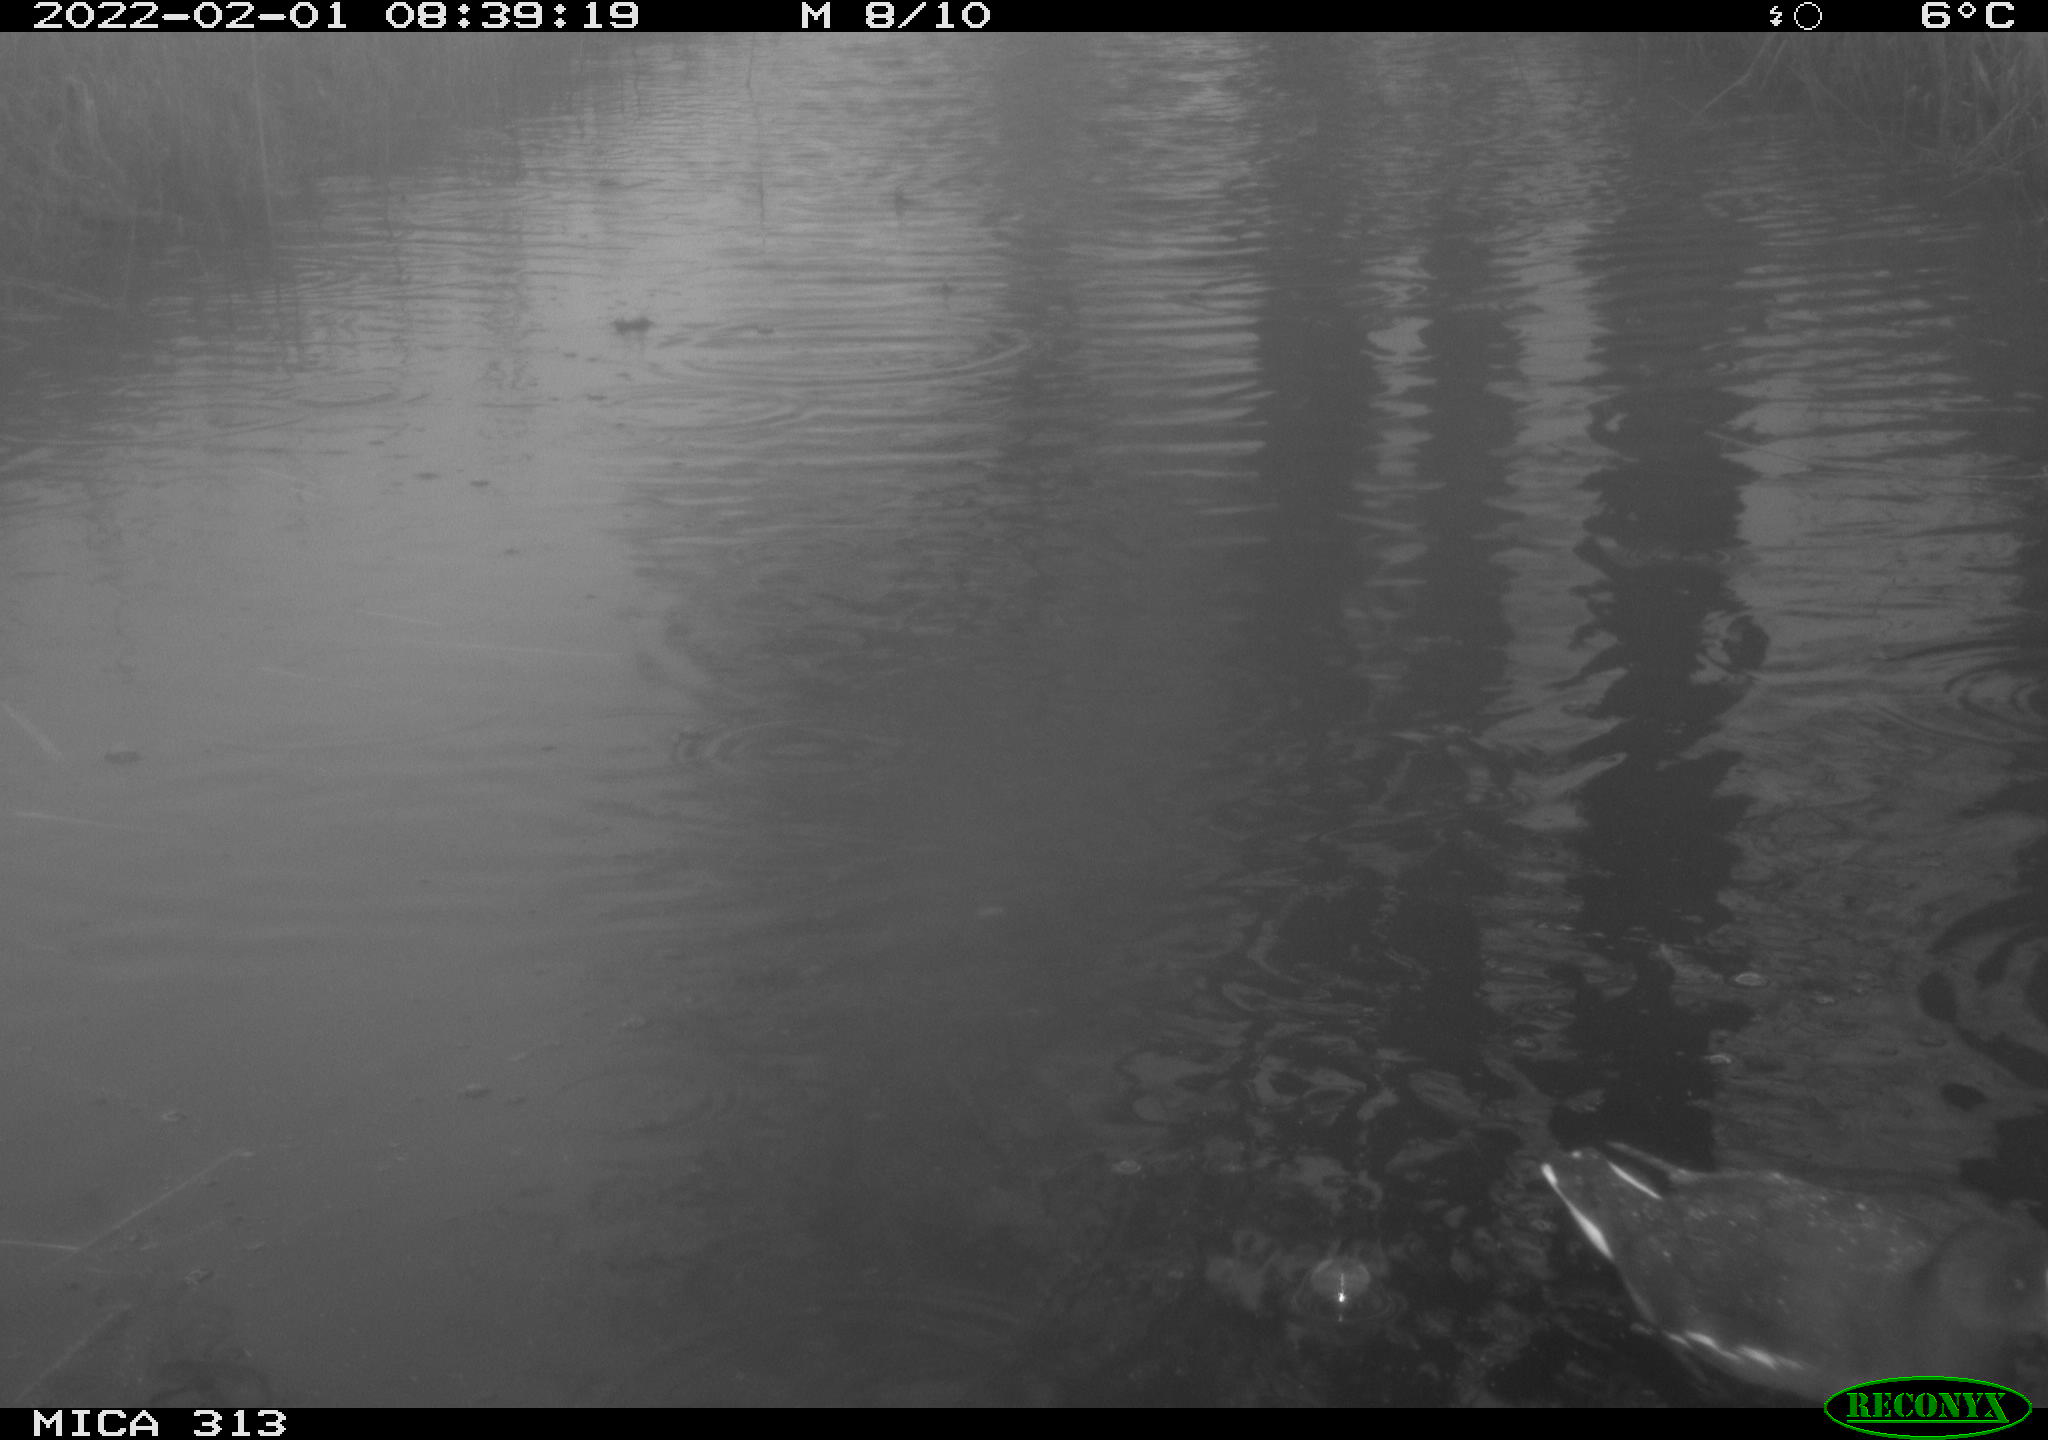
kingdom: Animalia
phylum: Chordata
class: Aves
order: Gruiformes
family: Rallidae
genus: Fulica
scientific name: Fulica atra
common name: Eurasian coot
